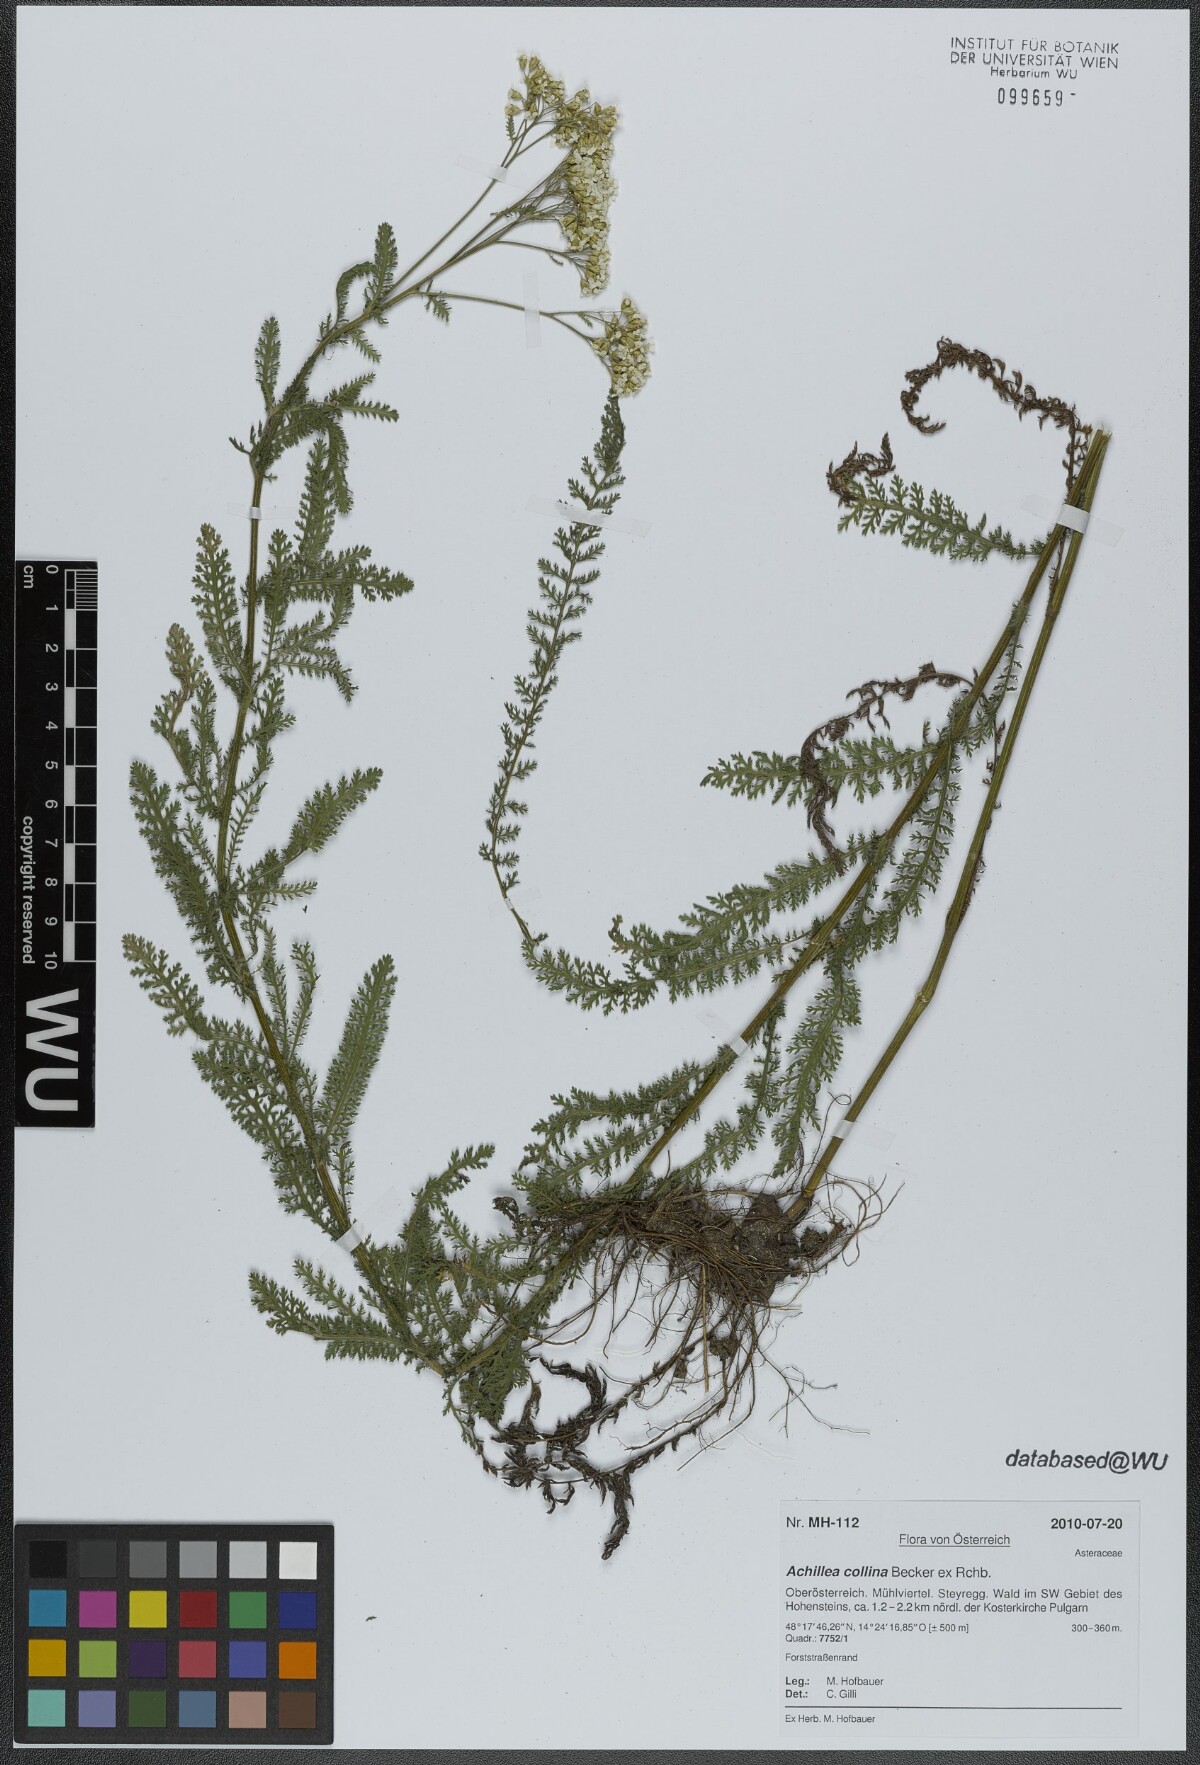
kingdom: Plantae
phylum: Tracheophyta
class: Magnoliopsida
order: Asterales
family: Asteraceae
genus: Achillea
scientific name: Achillea collina
